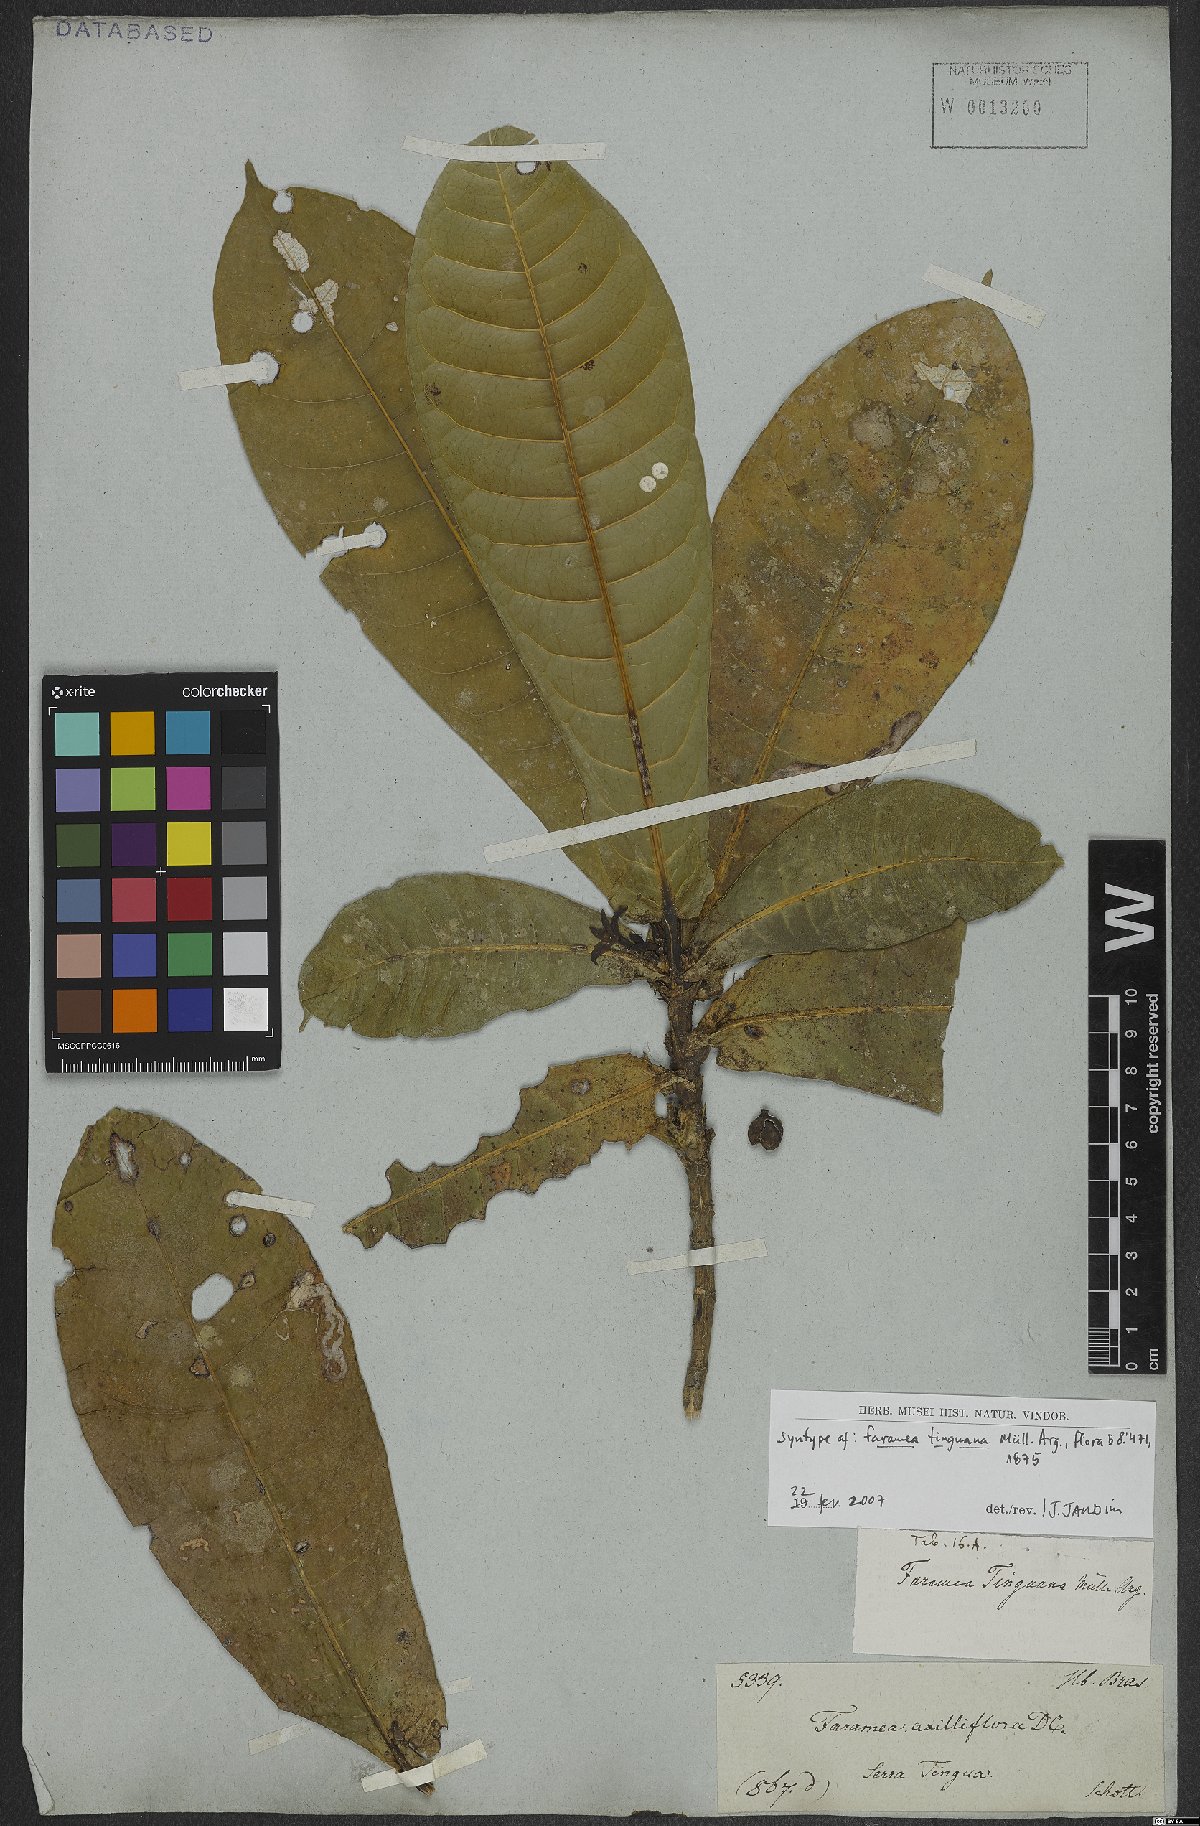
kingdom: Plantae
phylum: Tracheophyta
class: Magnoliopsida
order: Gentianales
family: Rubiaceae
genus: Faramea
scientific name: Faramea tinguana
